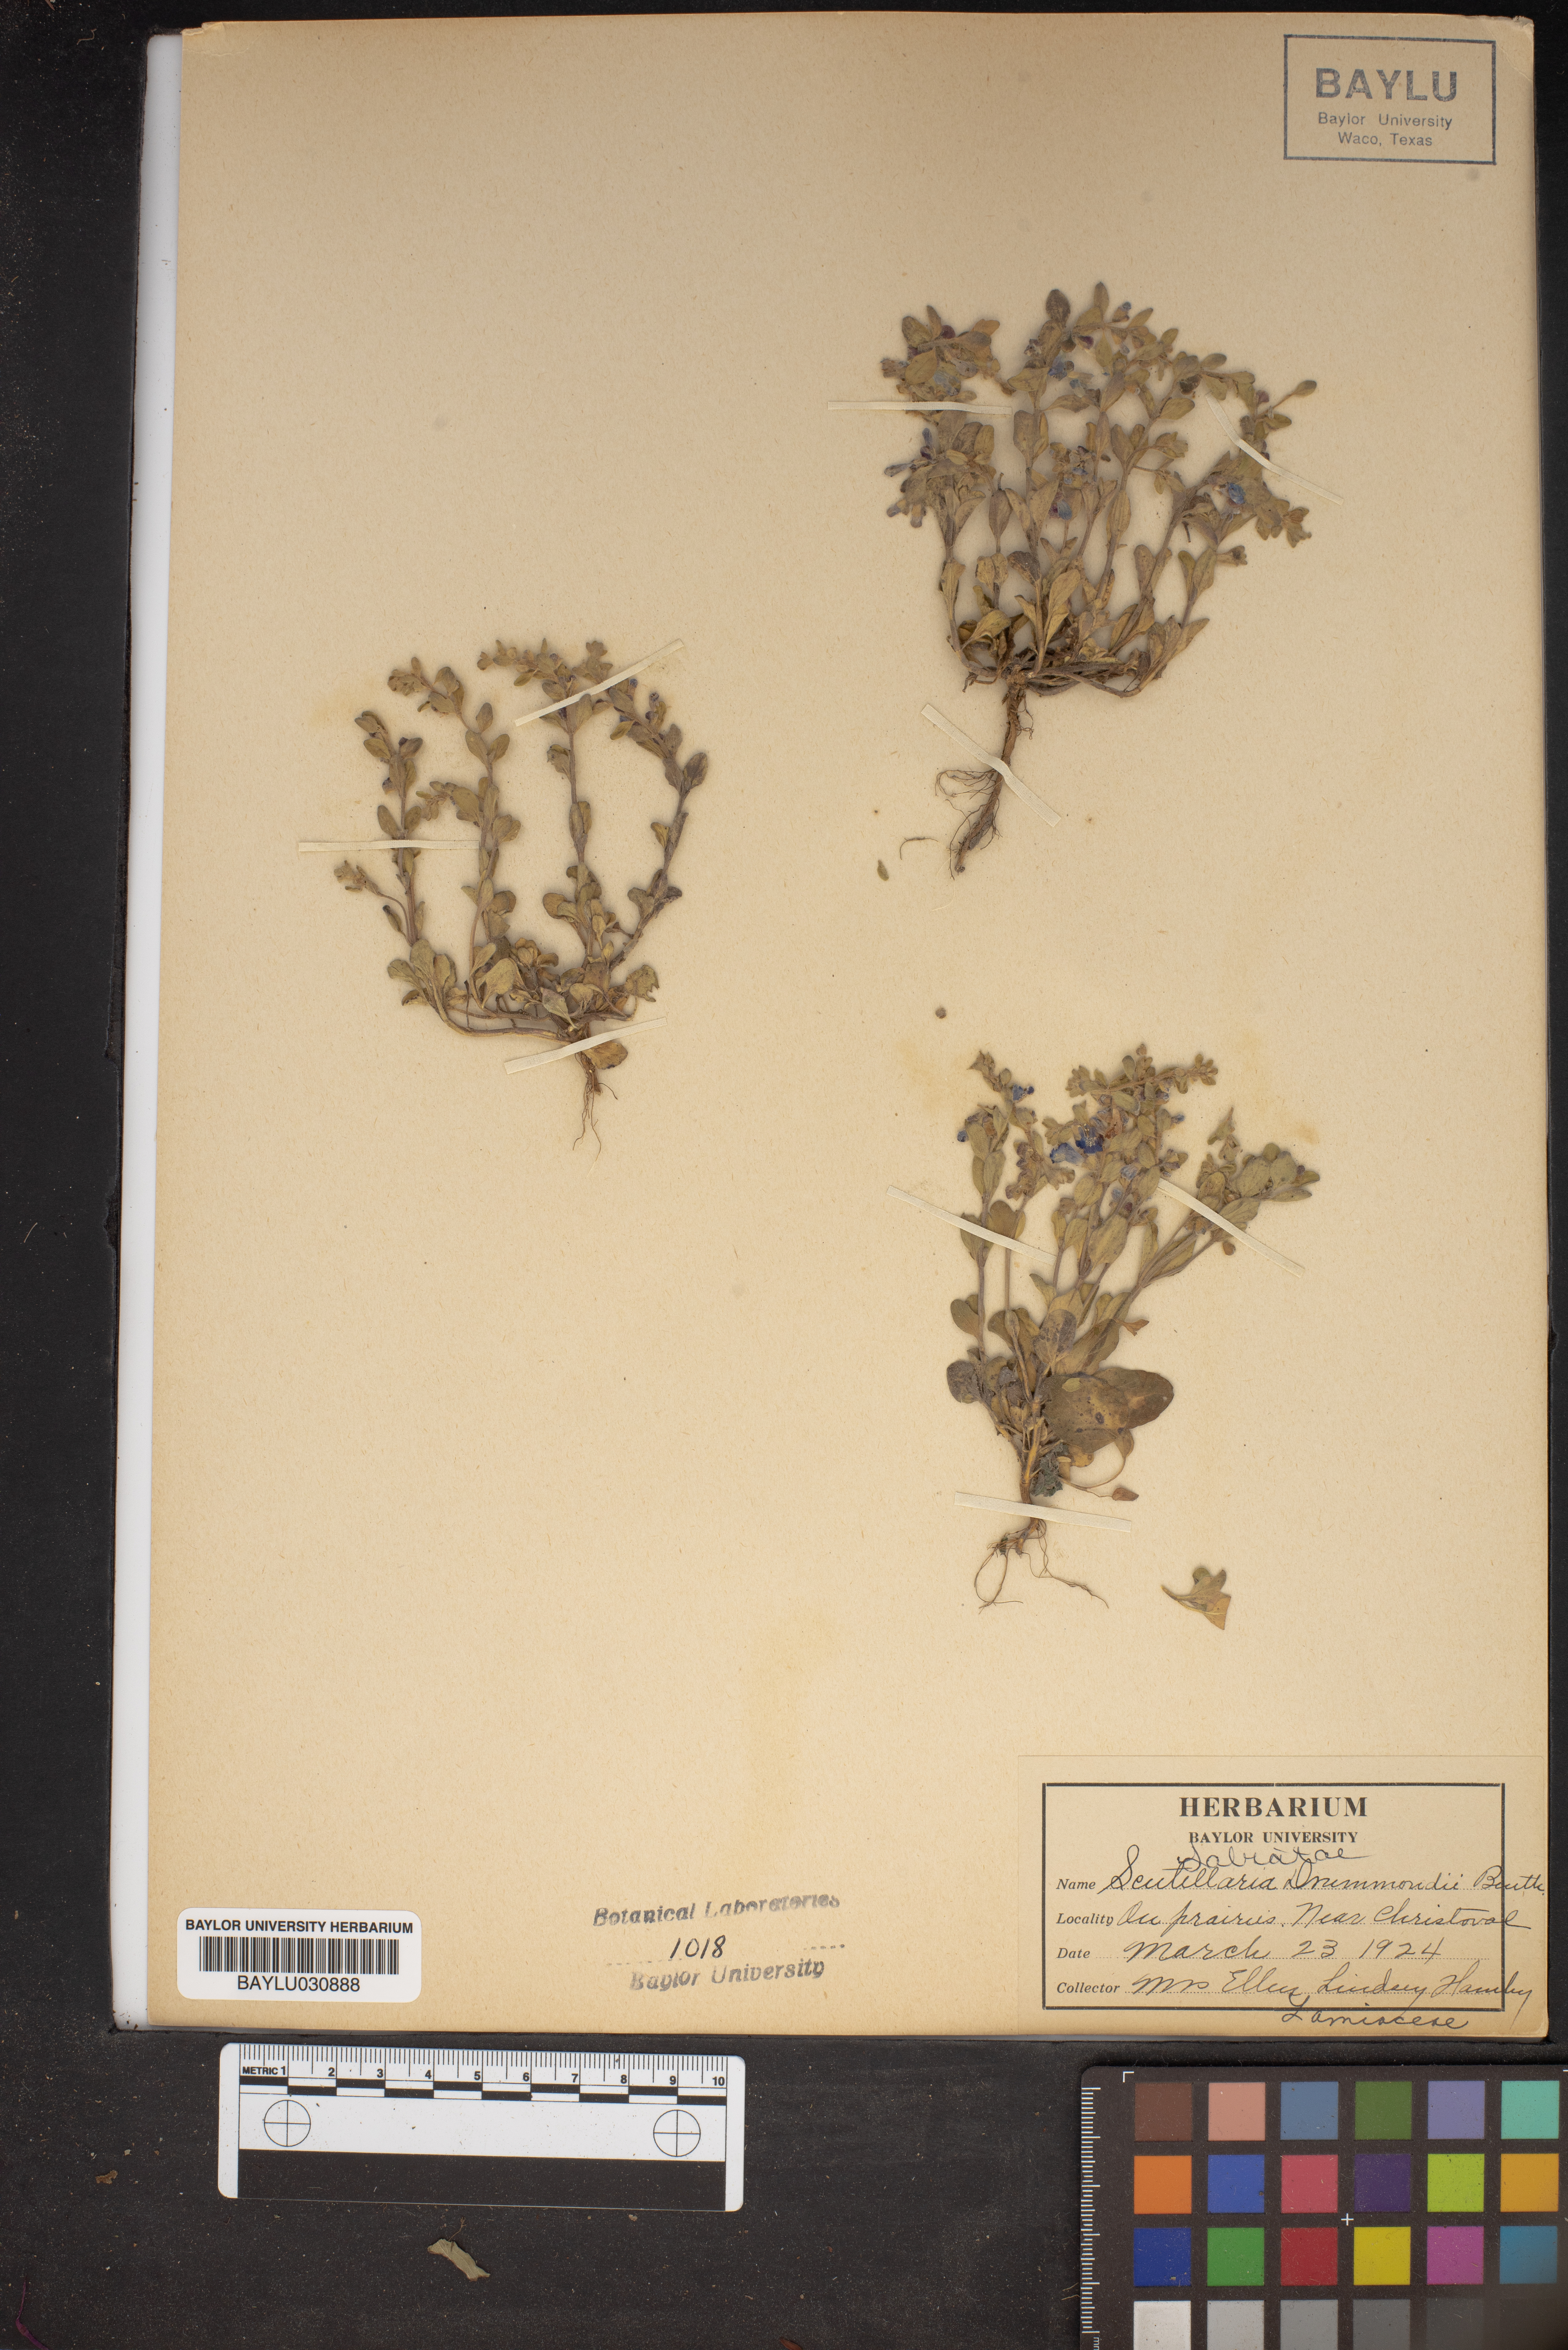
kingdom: Plantae
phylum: Tracheophyta
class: Magnoliopsida
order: Lamiales
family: Lamiaceae
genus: Scutellaria
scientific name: Scutellaria drummondii
